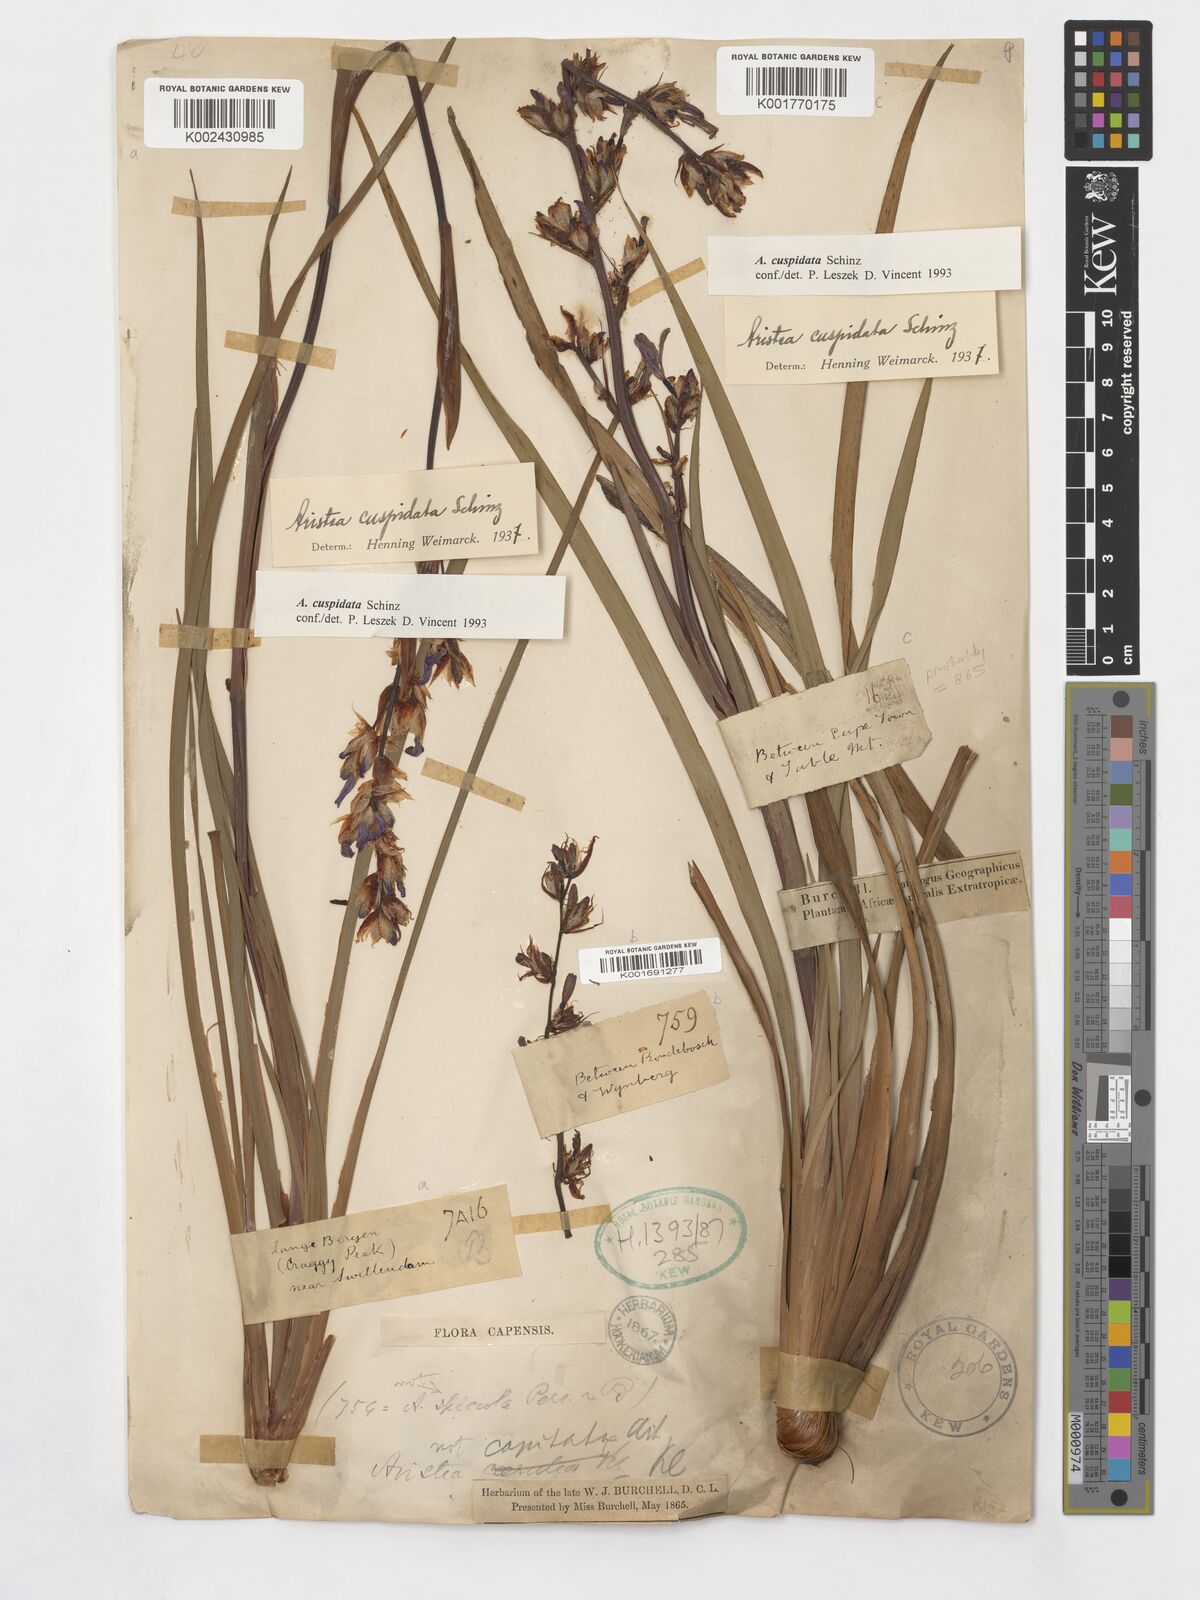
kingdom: Plantae
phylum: Tracheophyta
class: Liliopsida
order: Asparagales
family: Iridaceae
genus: Aristea
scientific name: Aristea cuspidata
